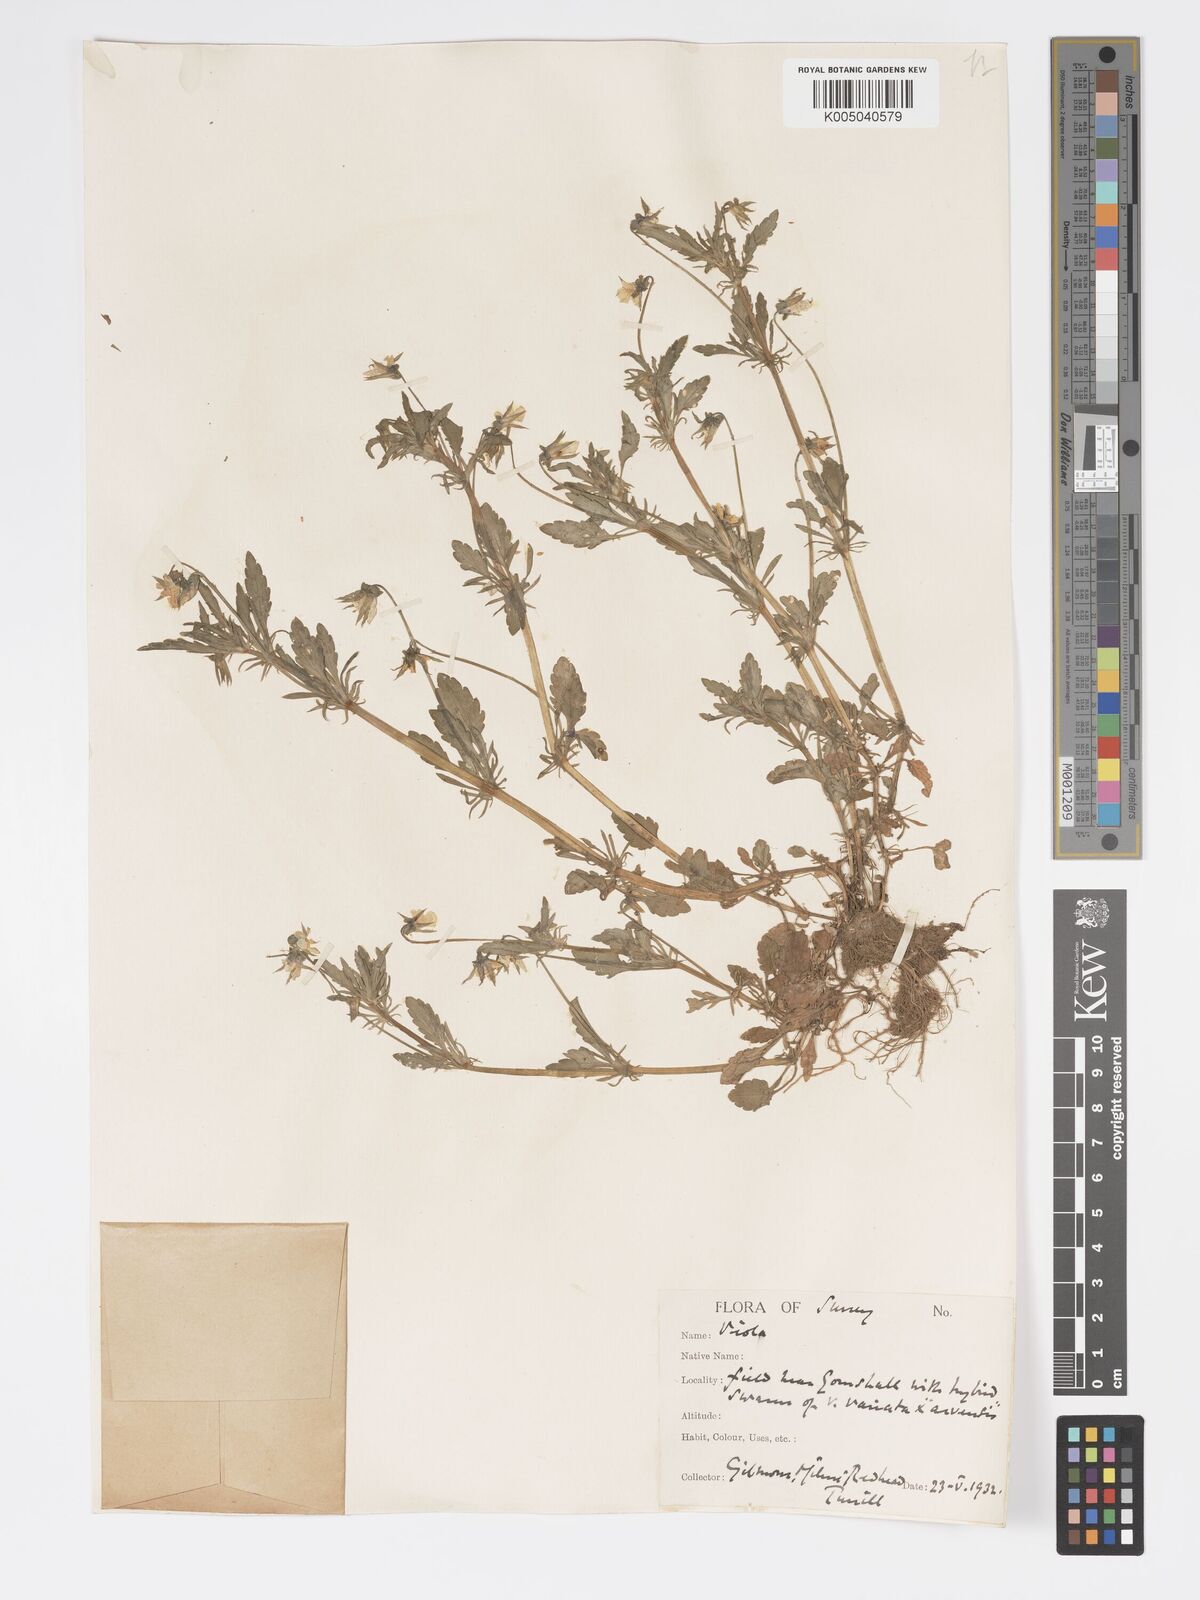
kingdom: Plantae
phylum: Tracheophyta
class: Magnoliopsida
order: Malpighiales
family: Violaceae
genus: Viola
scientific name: Viola
